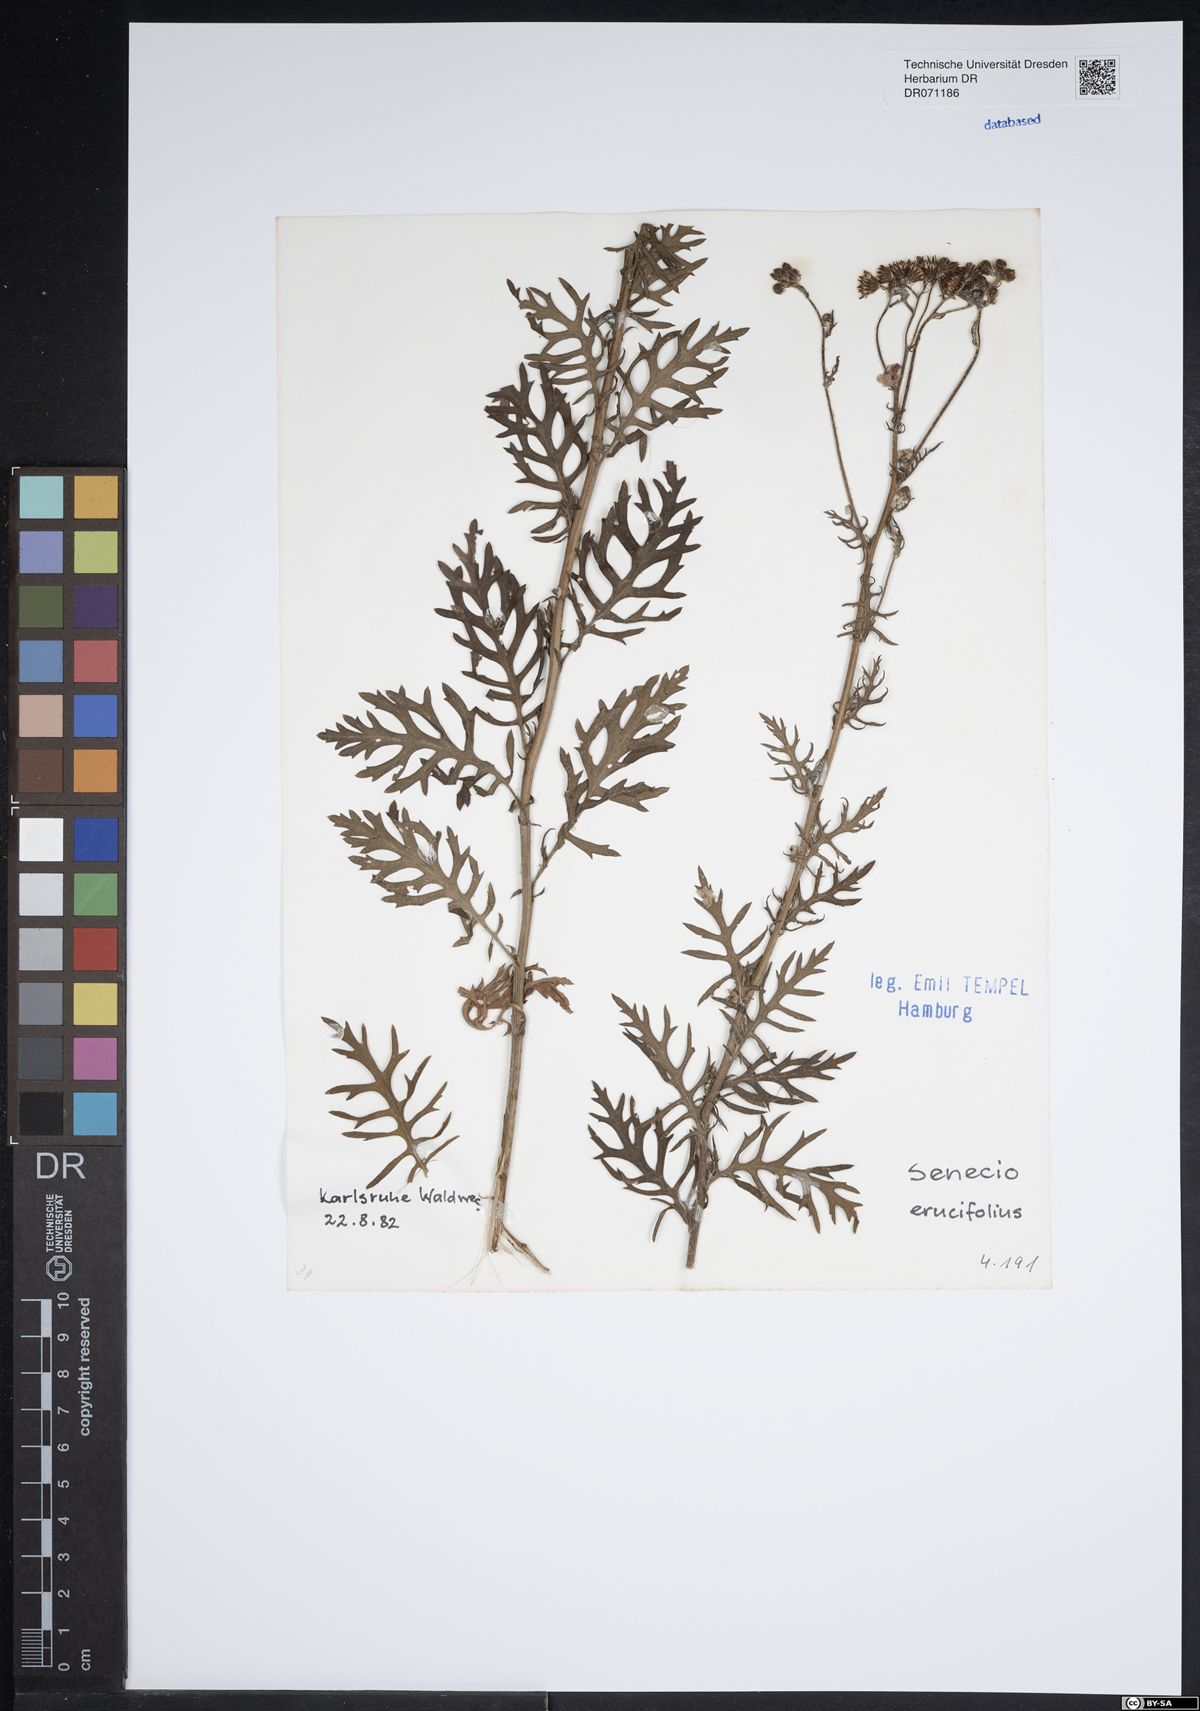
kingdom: Plantae
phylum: Tracheophyta
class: Magnoliopsida
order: Asterales
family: Asteraceae
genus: Jacobaea
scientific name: Jacobaea erucifolia
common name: Hoary ragwort
